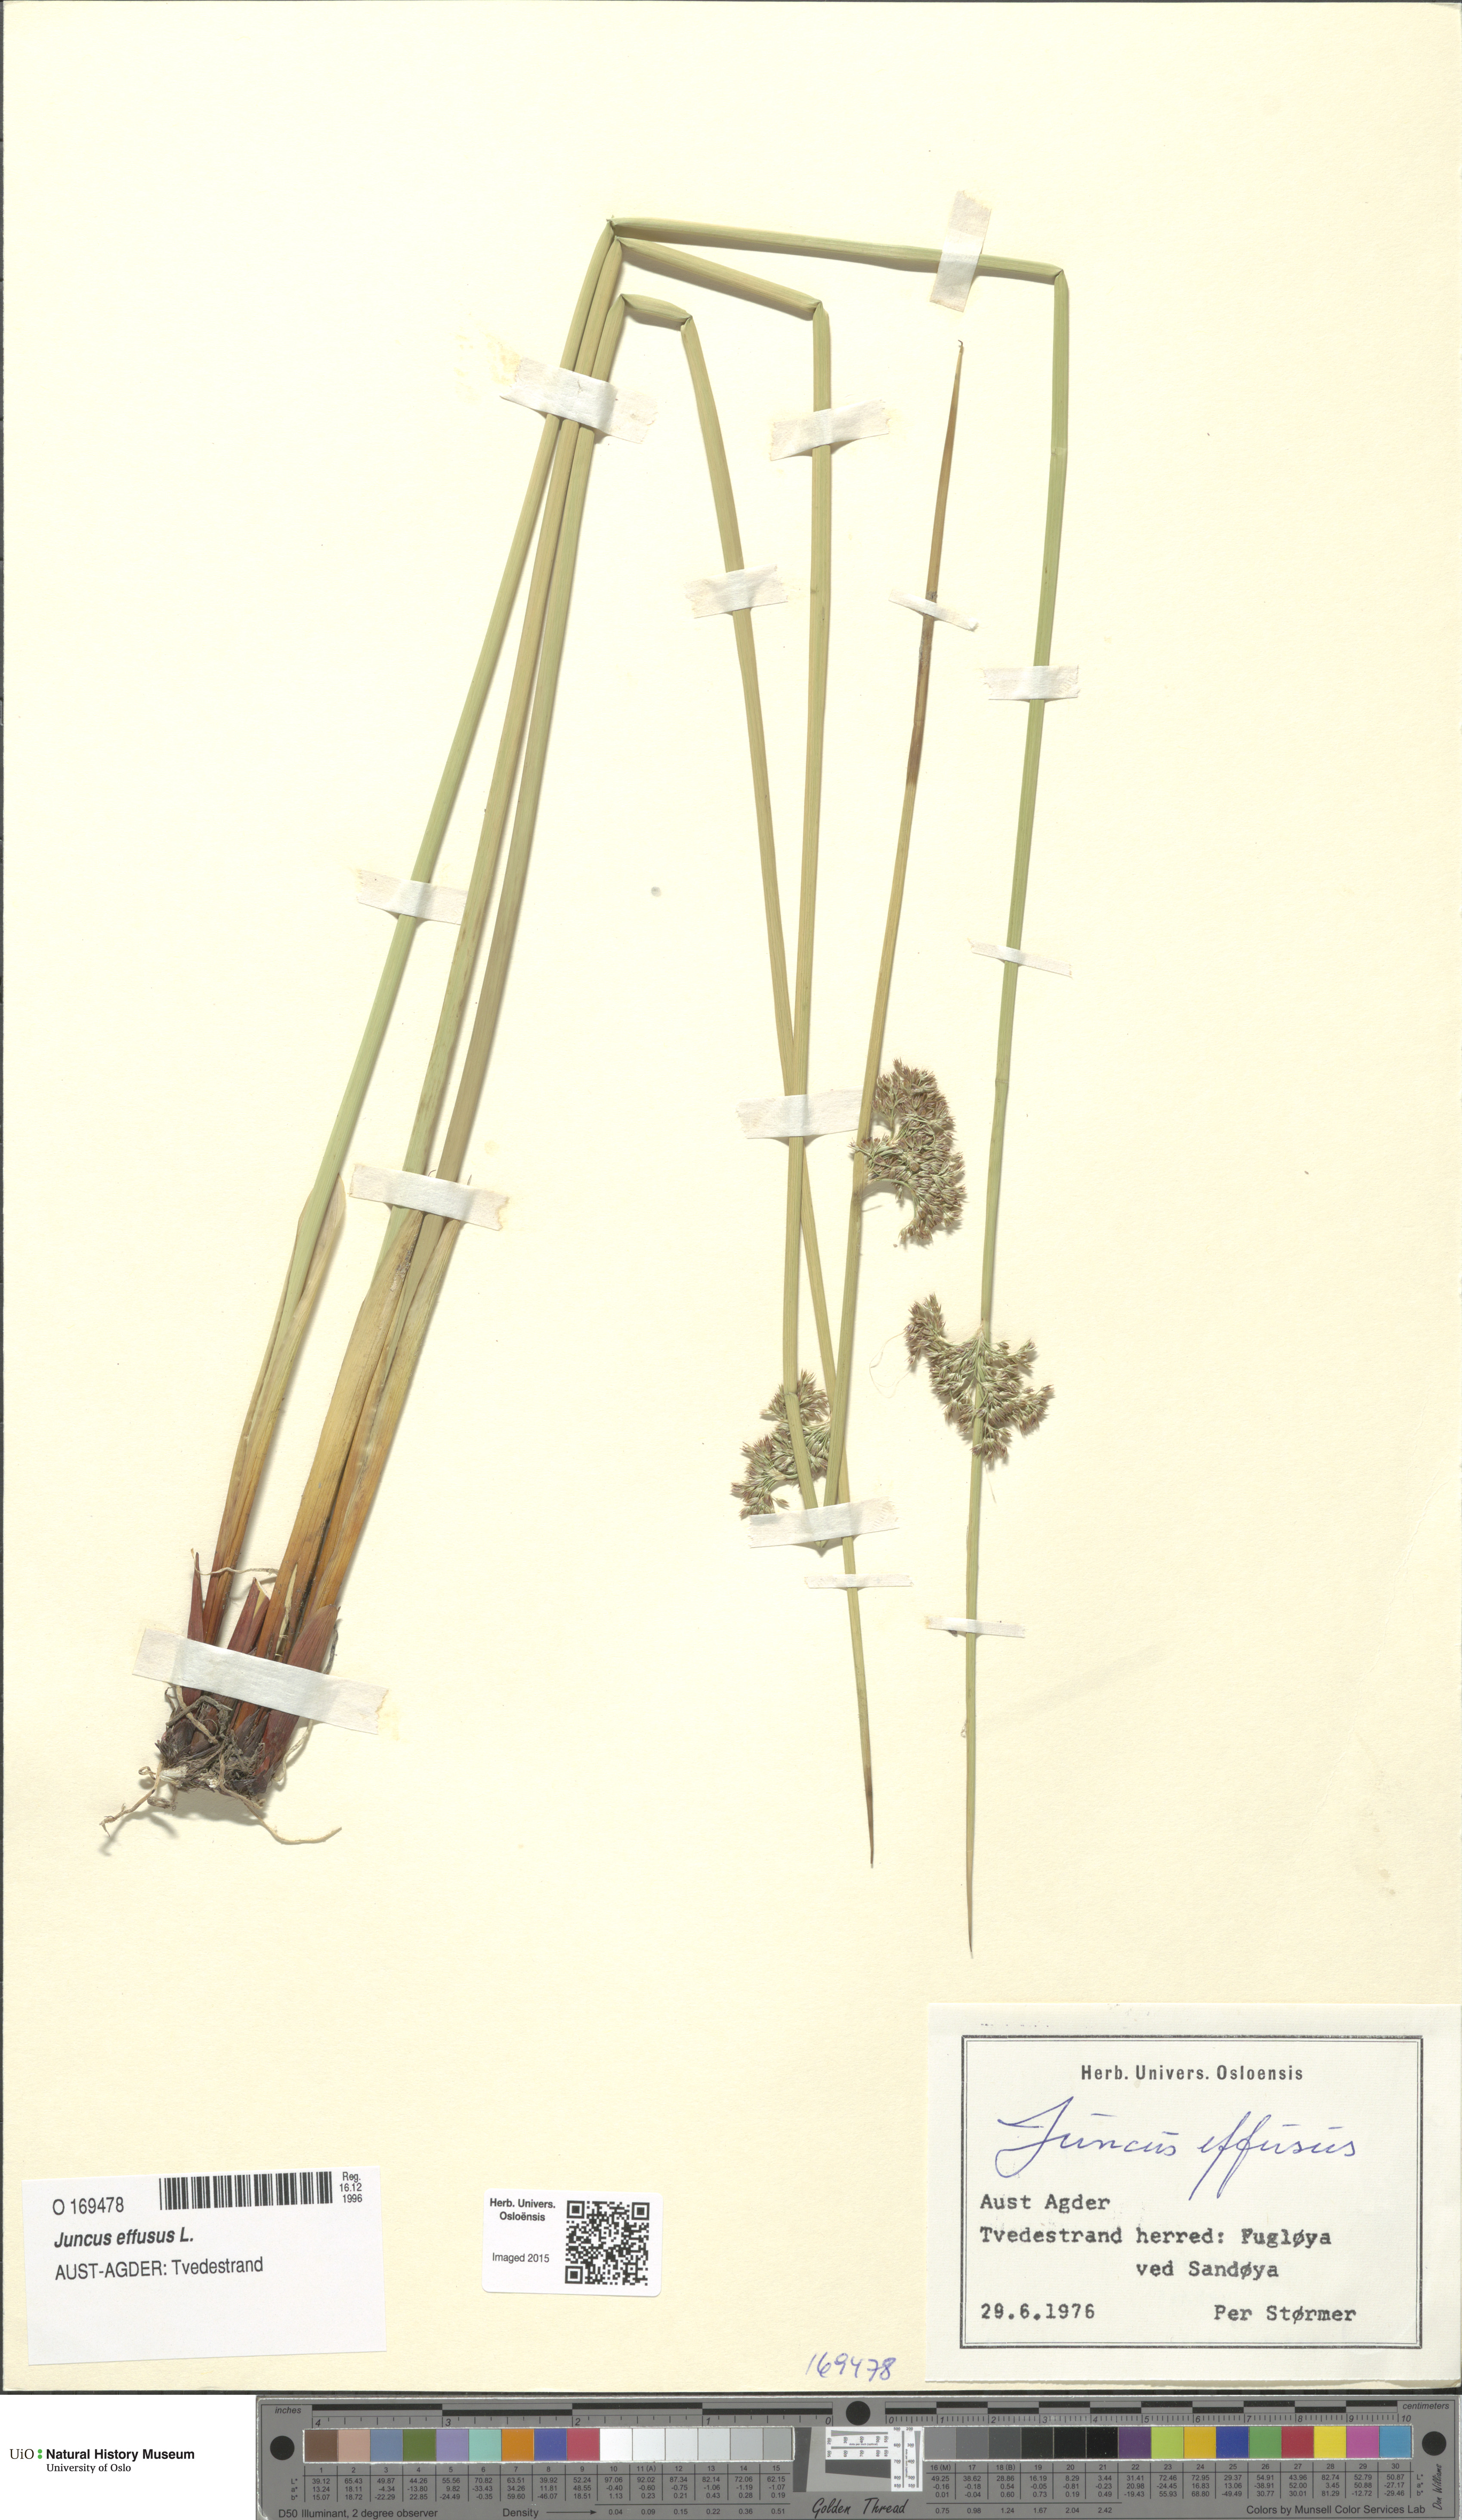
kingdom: Plantae
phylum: Tracheophyta
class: Liliopsida
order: Poales
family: Juncaceae
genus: Juncus
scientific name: Juncus effusus
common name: Soft rush
